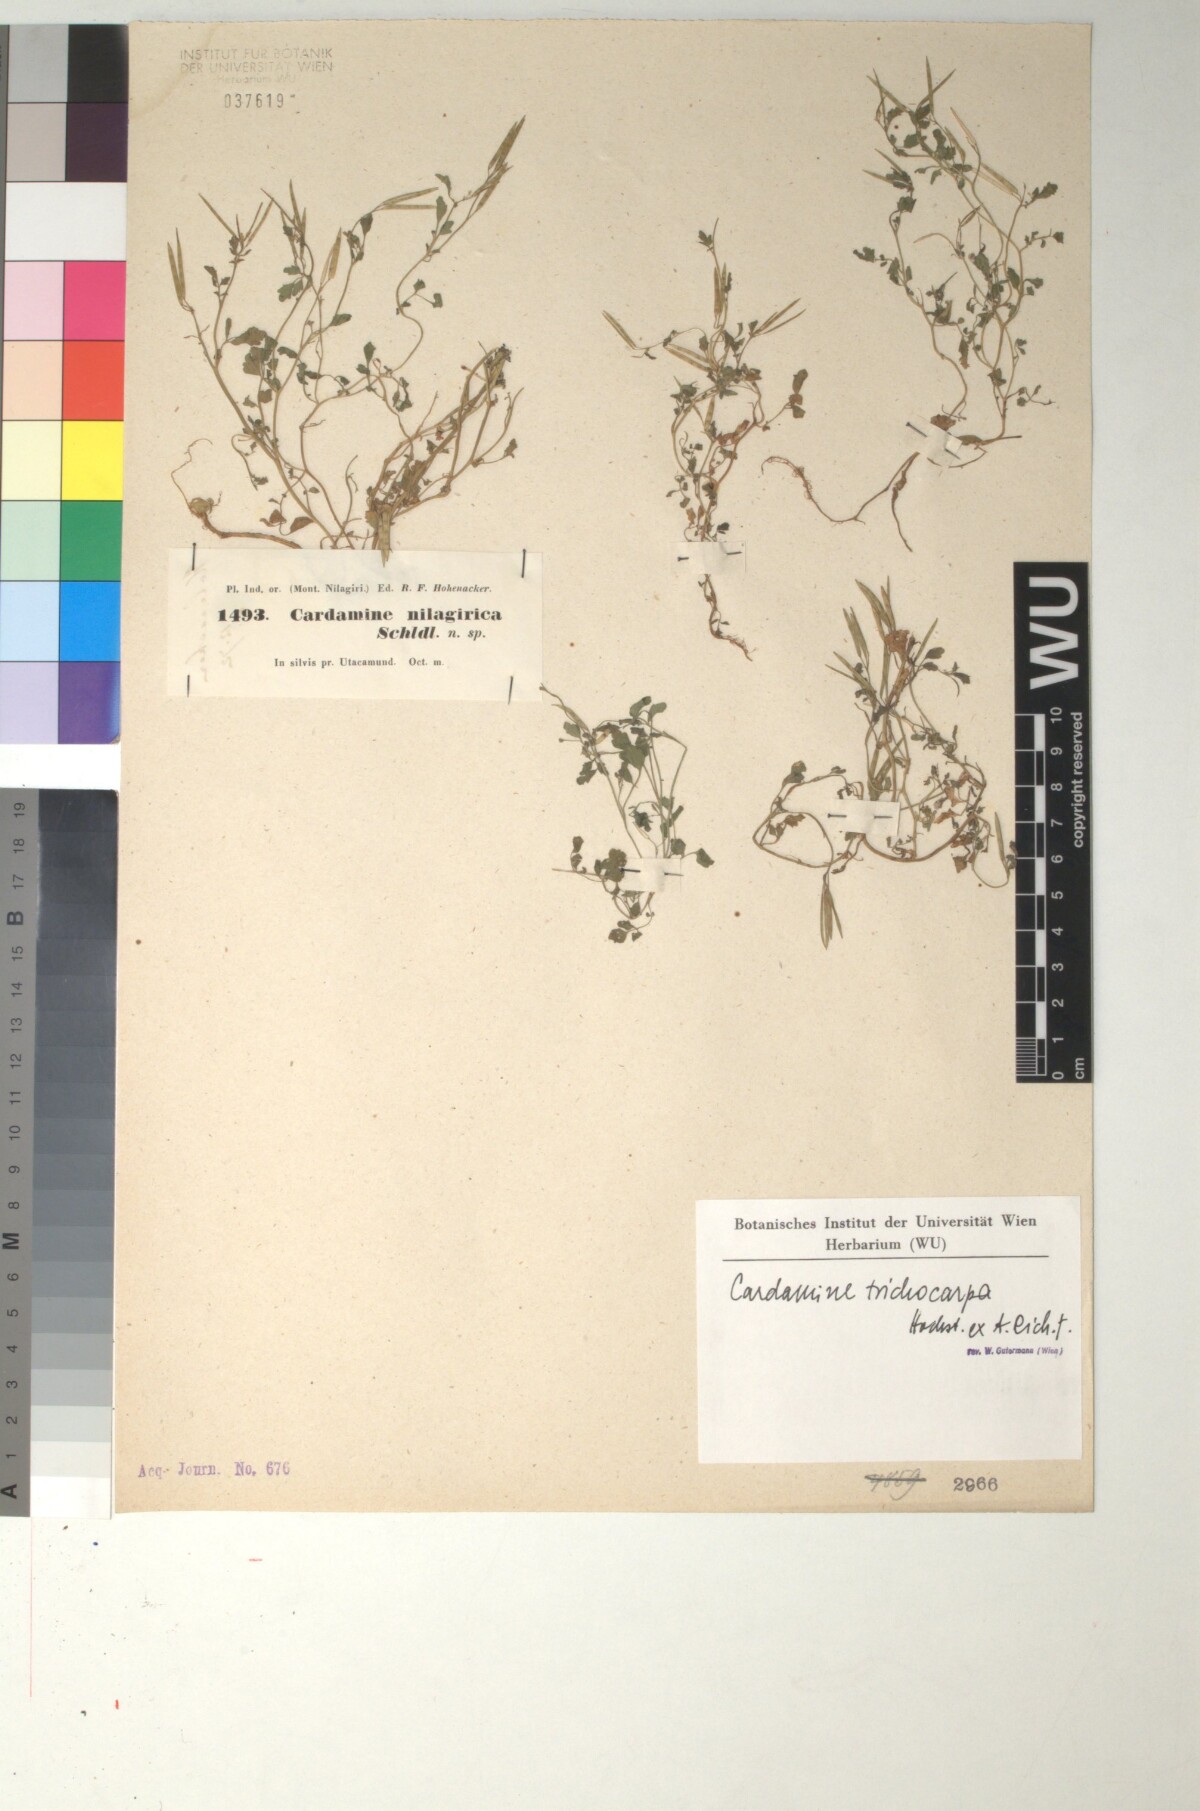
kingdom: Plantae
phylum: Tracheophyta
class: Magnoliopsida
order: Brassicales
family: Brassicaceae
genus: Cardamine
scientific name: Cardamine trichocarpa
